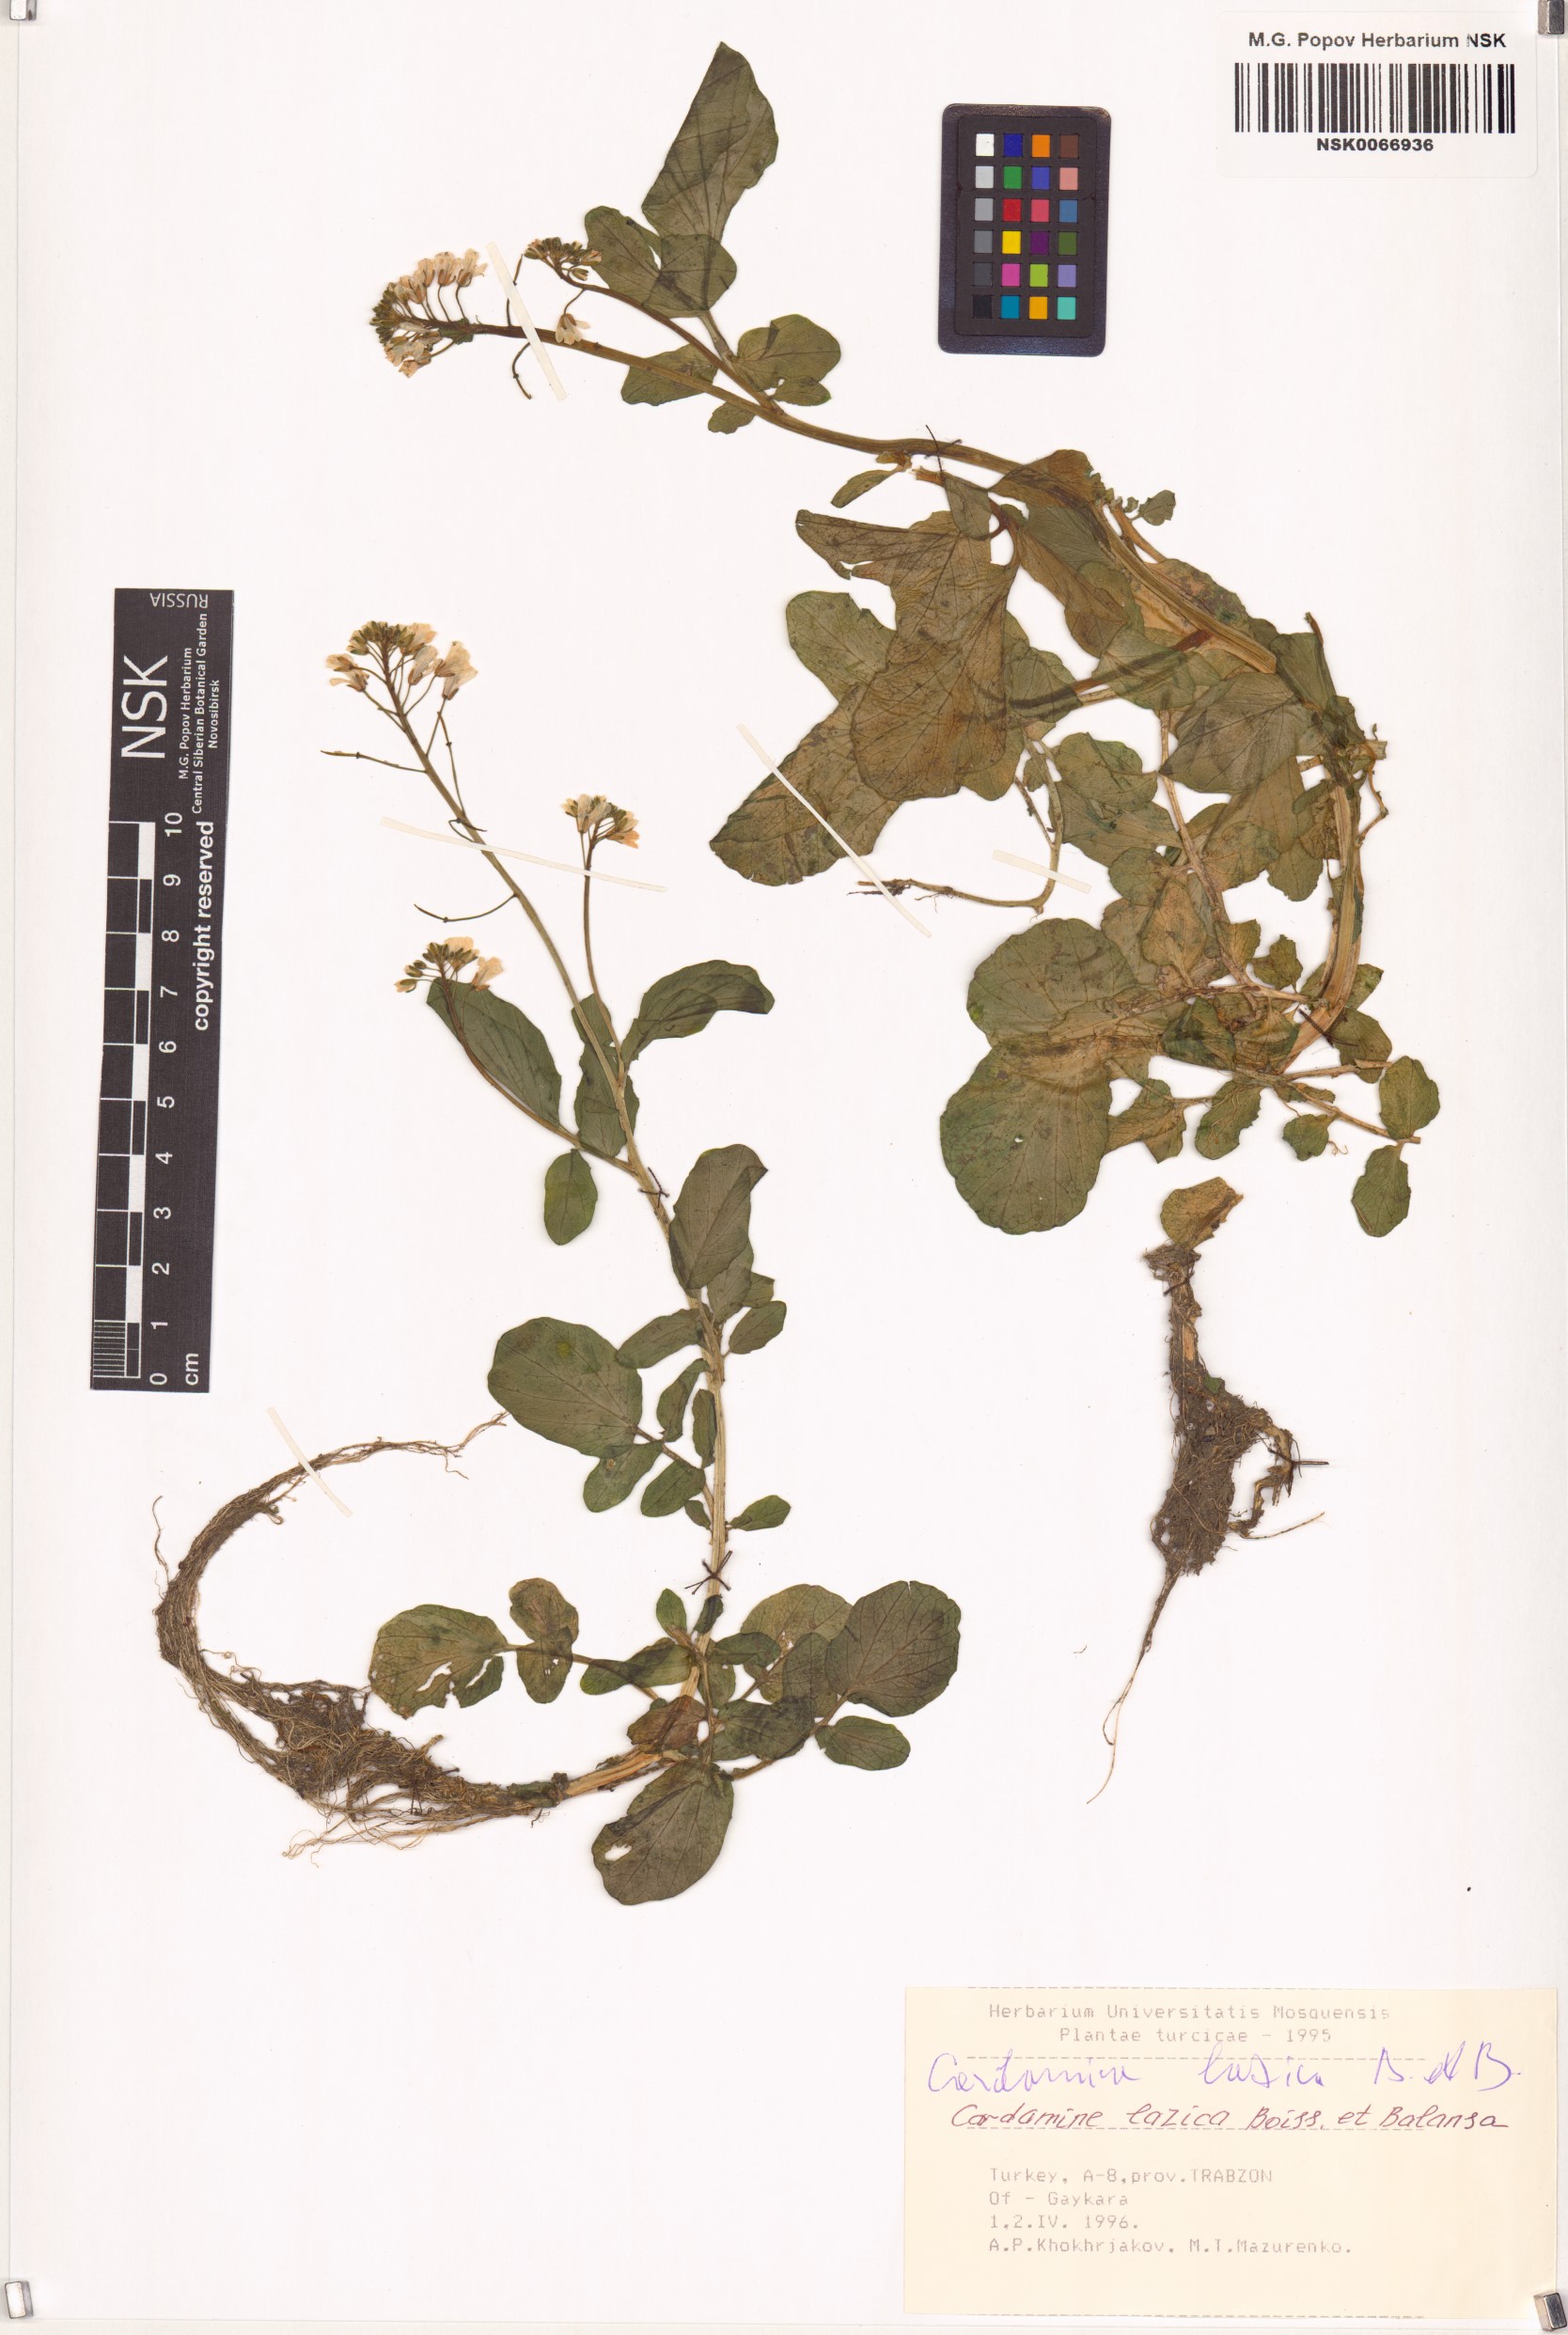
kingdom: Plantae
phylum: Tracheophyta
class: Magnoliopsida
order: Brassicales
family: Brassicaceae
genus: Cardamine
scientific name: Cardamine lazica
